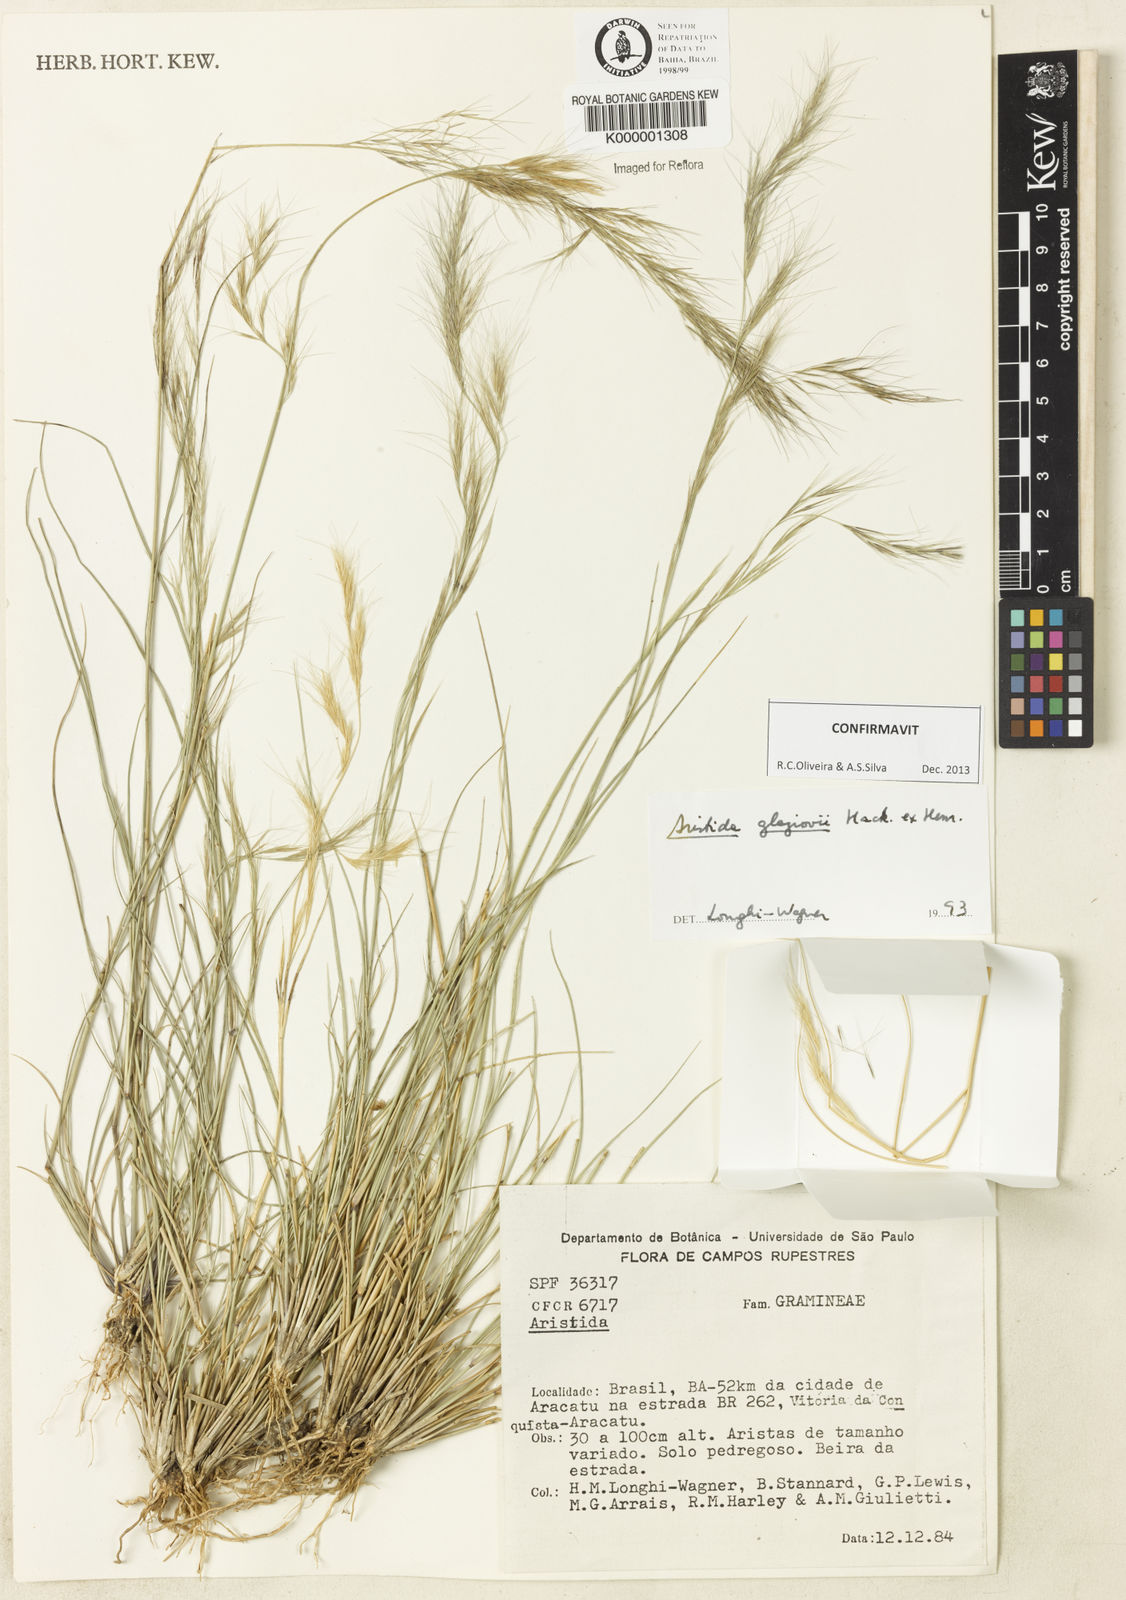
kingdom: Plantae
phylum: Tracheophyta
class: Liliopsida
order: Poales
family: Poaceae
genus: Aristida
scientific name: Aristida
